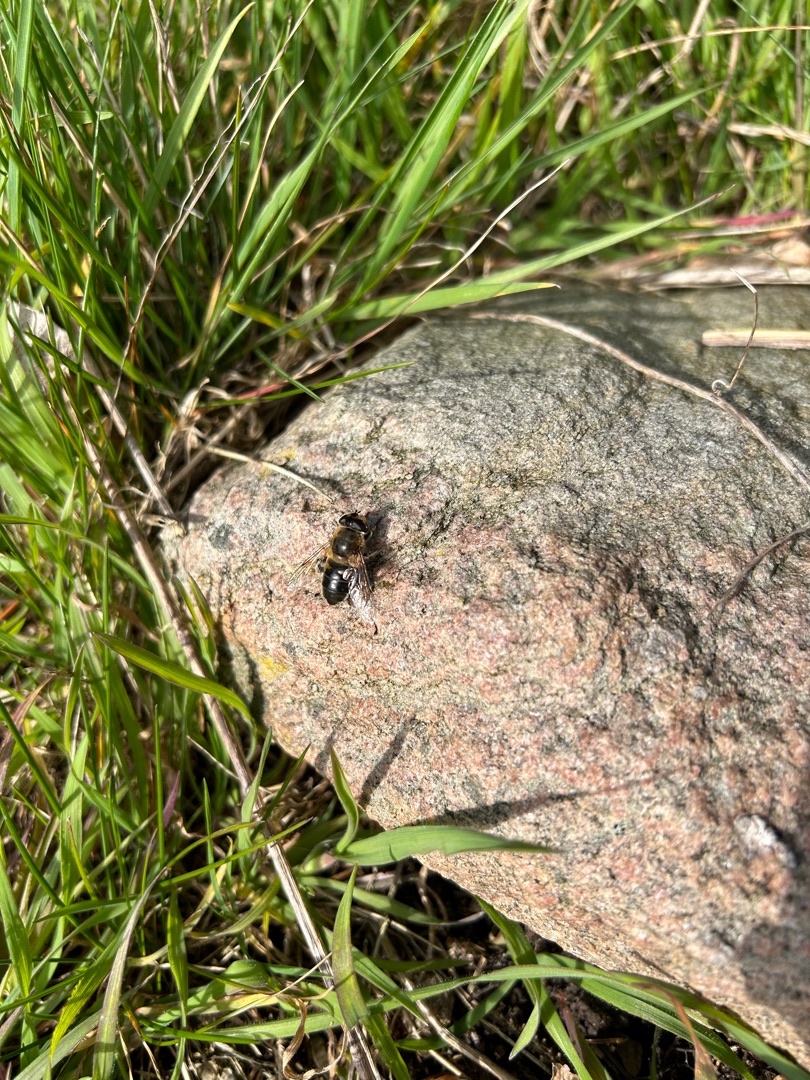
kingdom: Animalia
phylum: Arthropoda
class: Insecta
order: Diptera
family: Syrphidae
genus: Eristalis
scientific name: Eristalis tenax
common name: Droneflue
